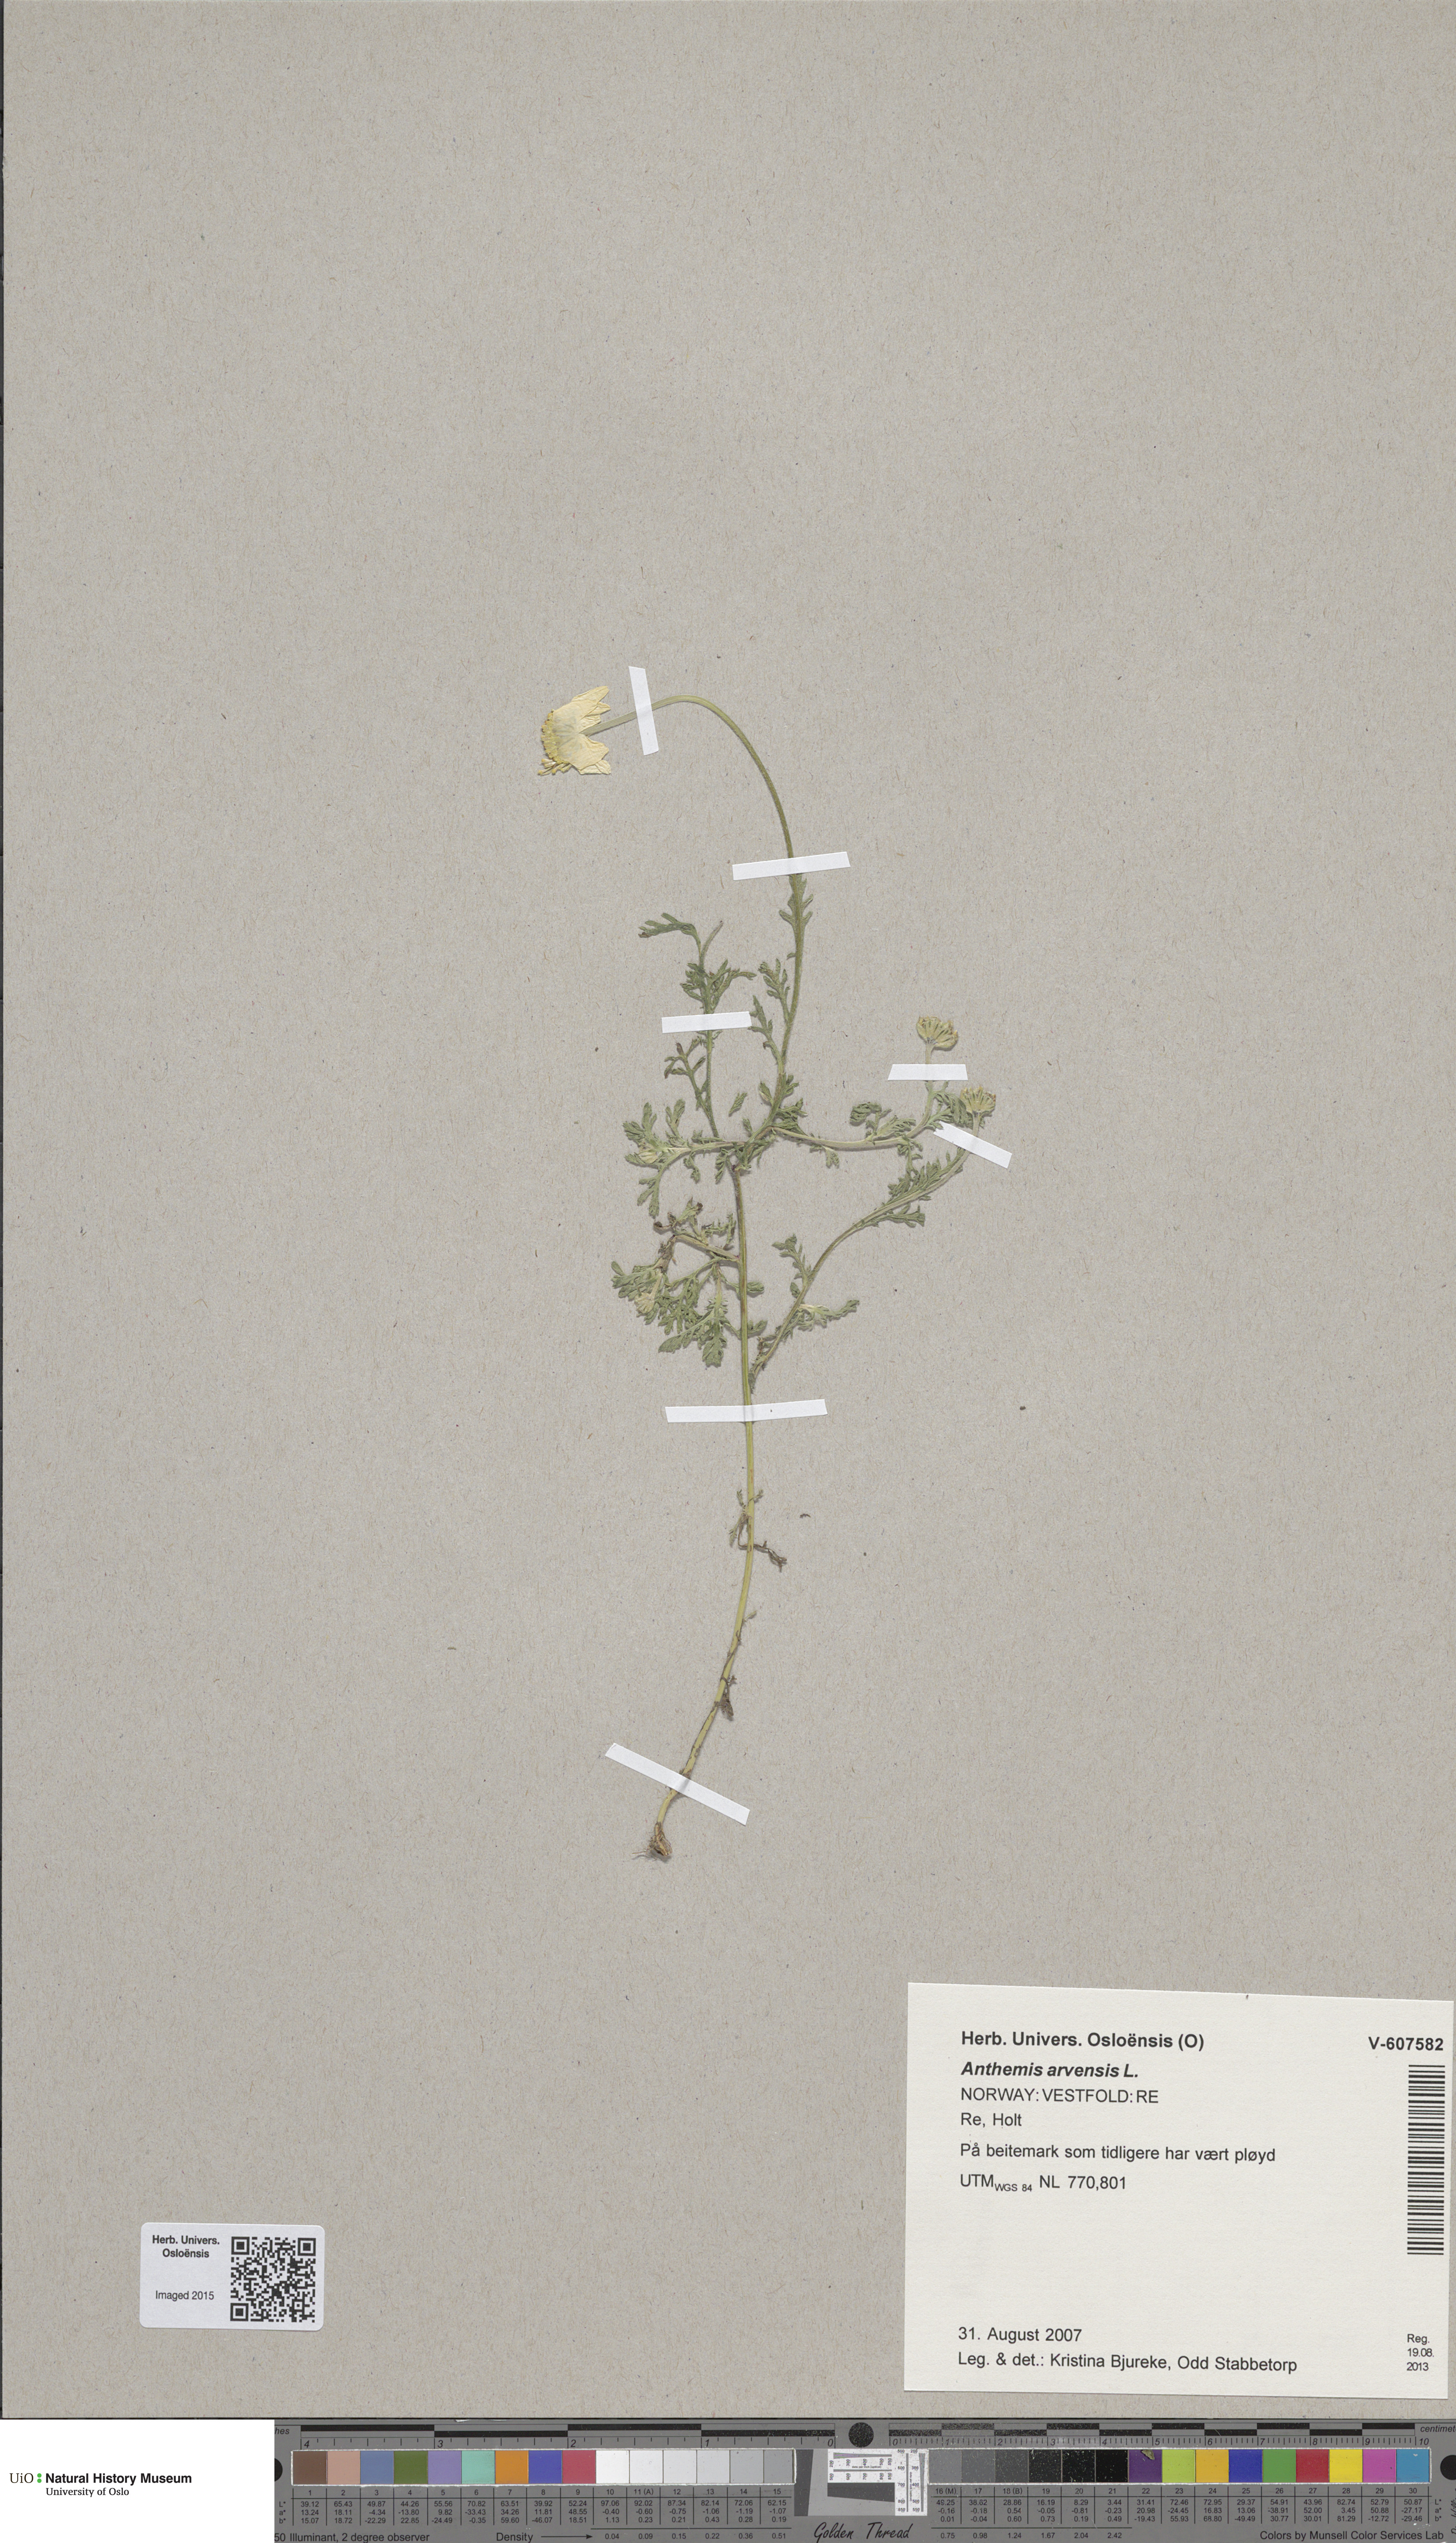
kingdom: Plantae
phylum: Tracheophyta
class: Magnoliopsida
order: Asterales
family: Asteraceae
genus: Anthemis
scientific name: Anthemis arvensis
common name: Corn chamomile
